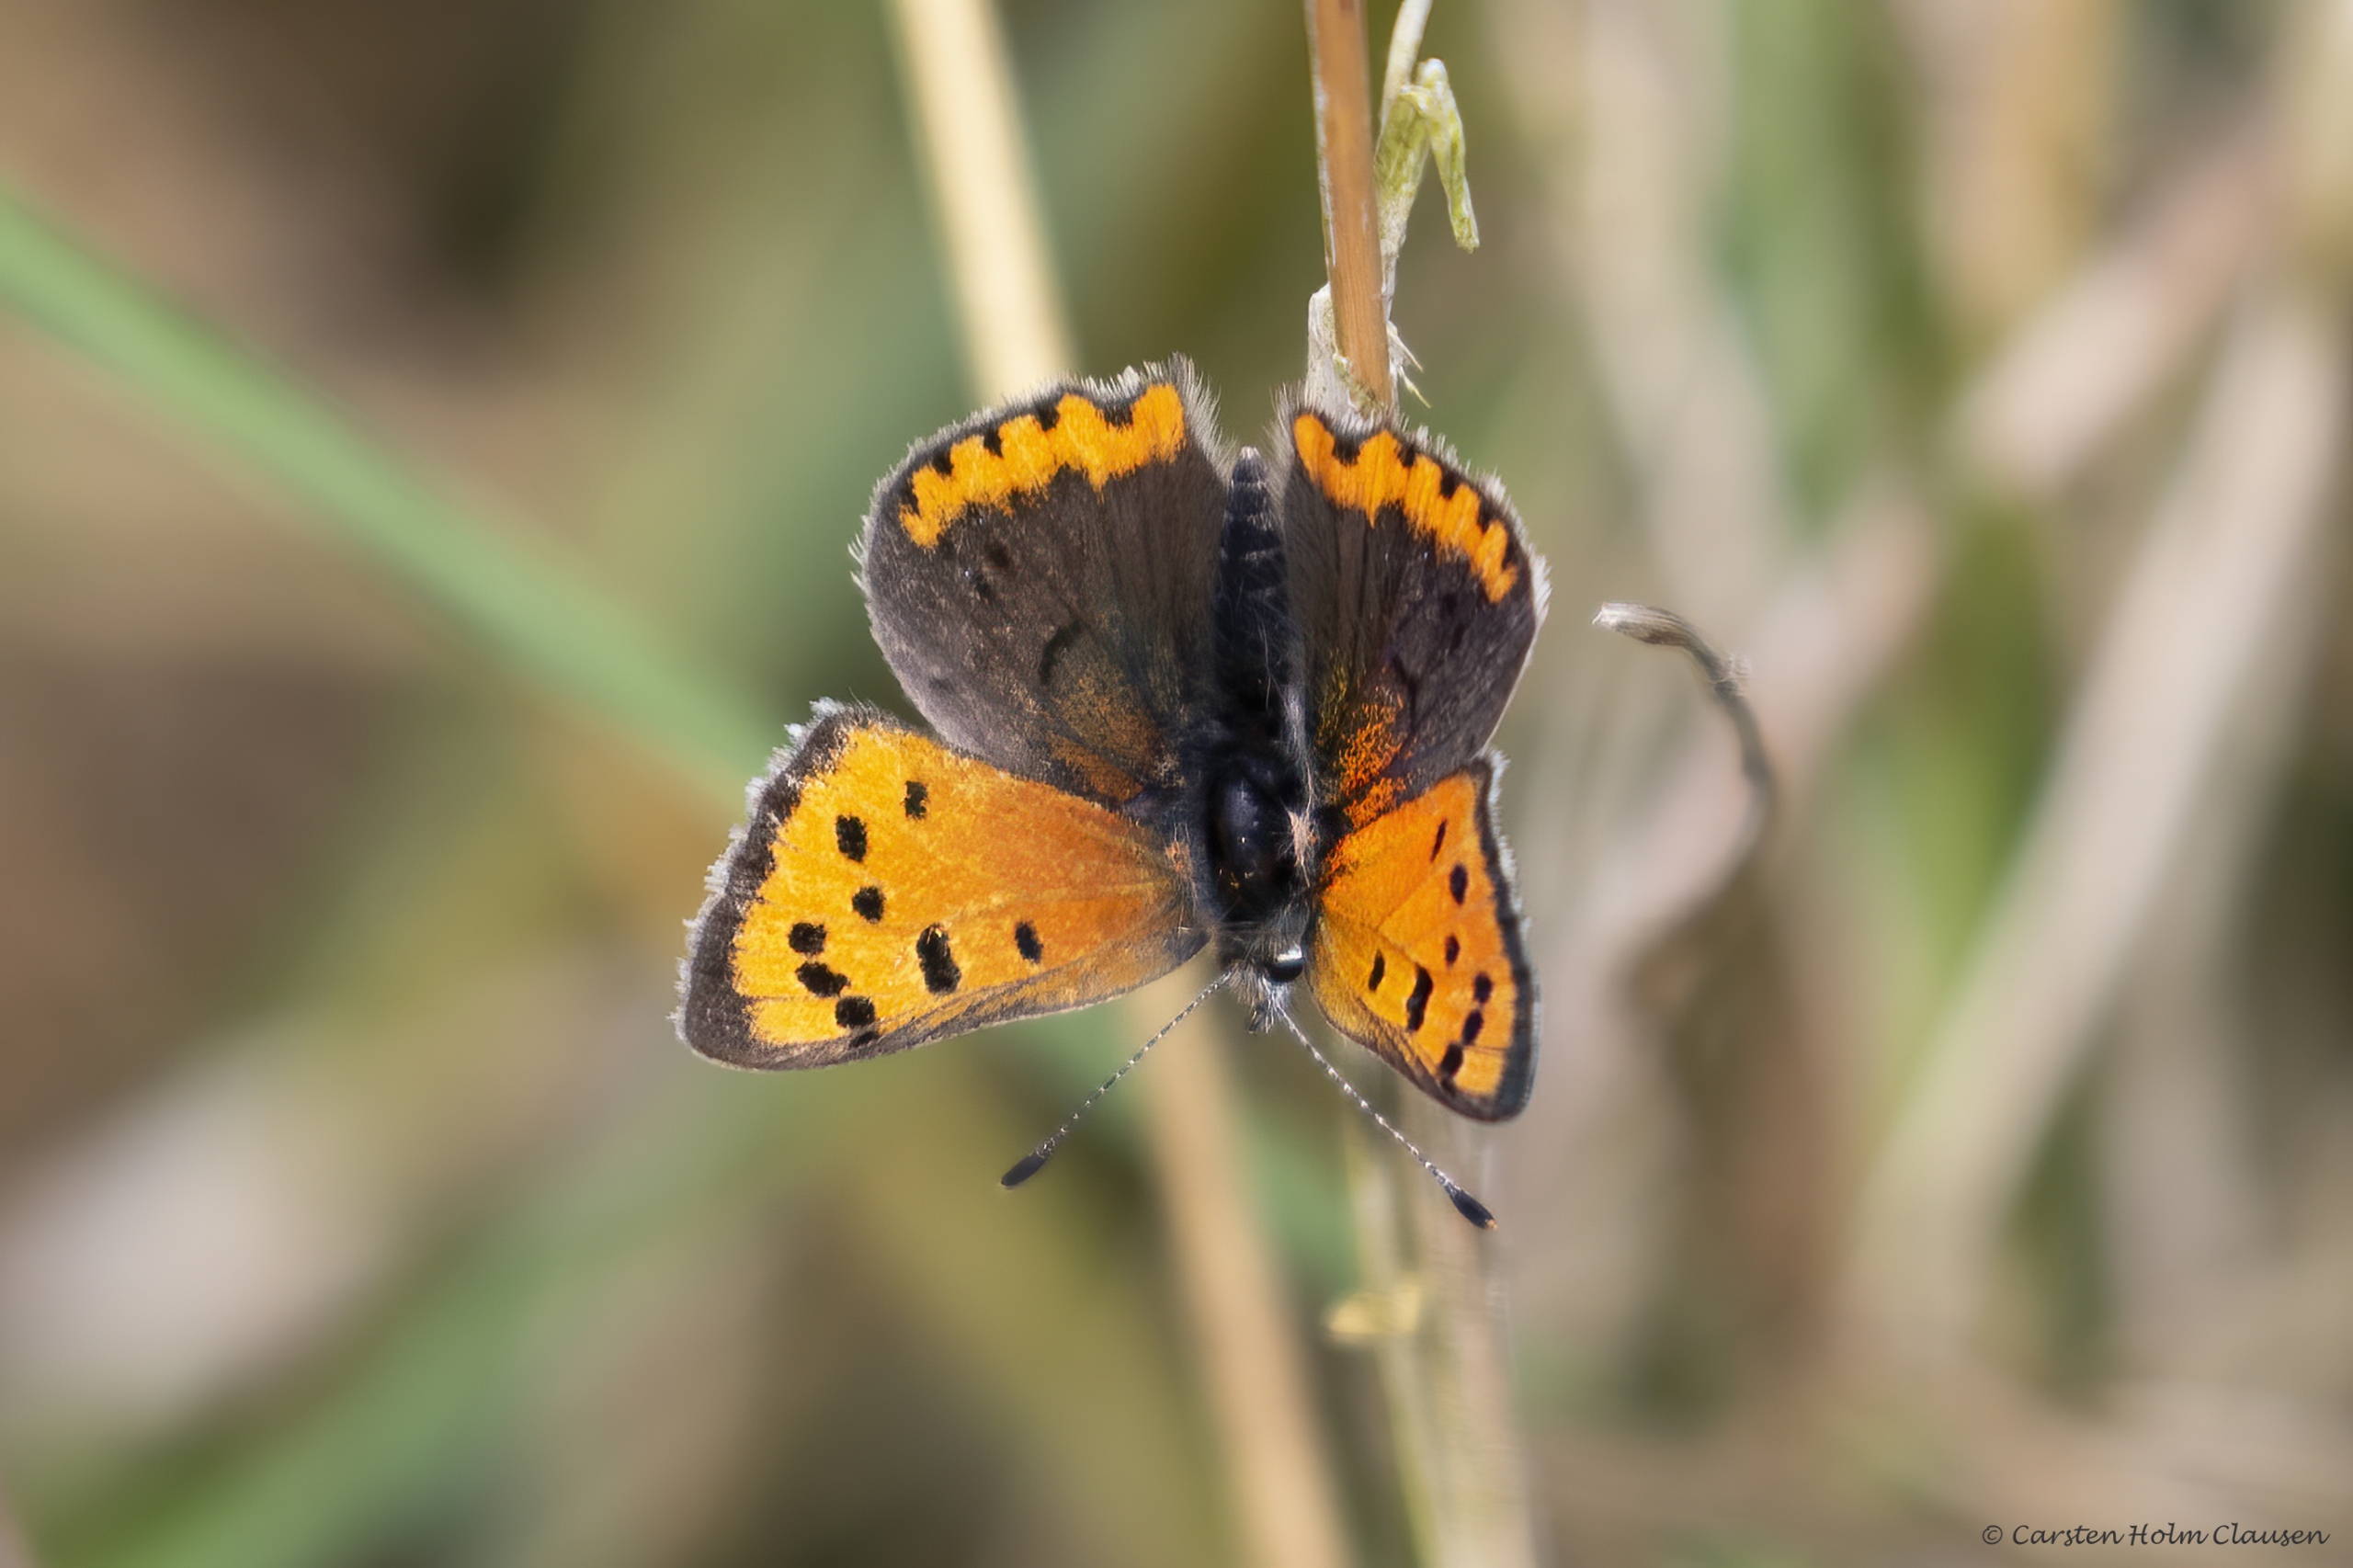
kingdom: Animalia
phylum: Arthropoda
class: Insecta
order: Lepidoptera
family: Lycaenidae
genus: Lycaena
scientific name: Lycaena phlaeas
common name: Lille ildfugl
